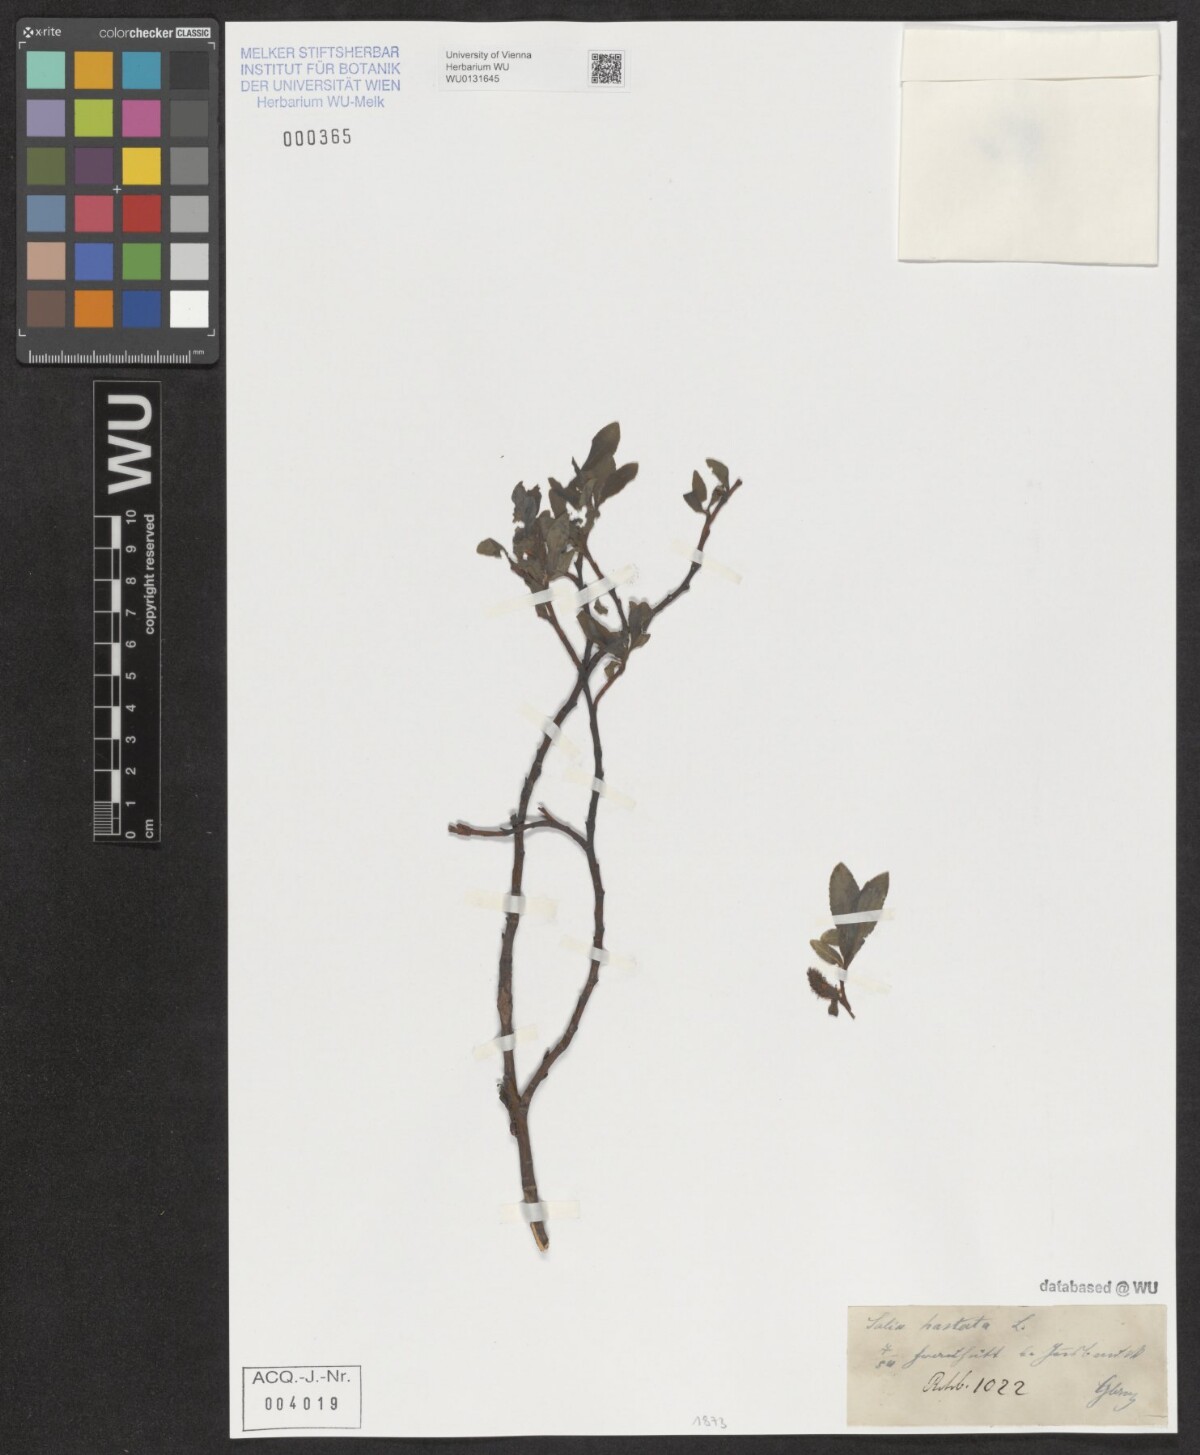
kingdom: Plantae
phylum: Tracheophyta
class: Magnoliopsida
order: Malpighiales
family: Salicaceae
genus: Salix
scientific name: Salix hastata
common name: Halberd willow
